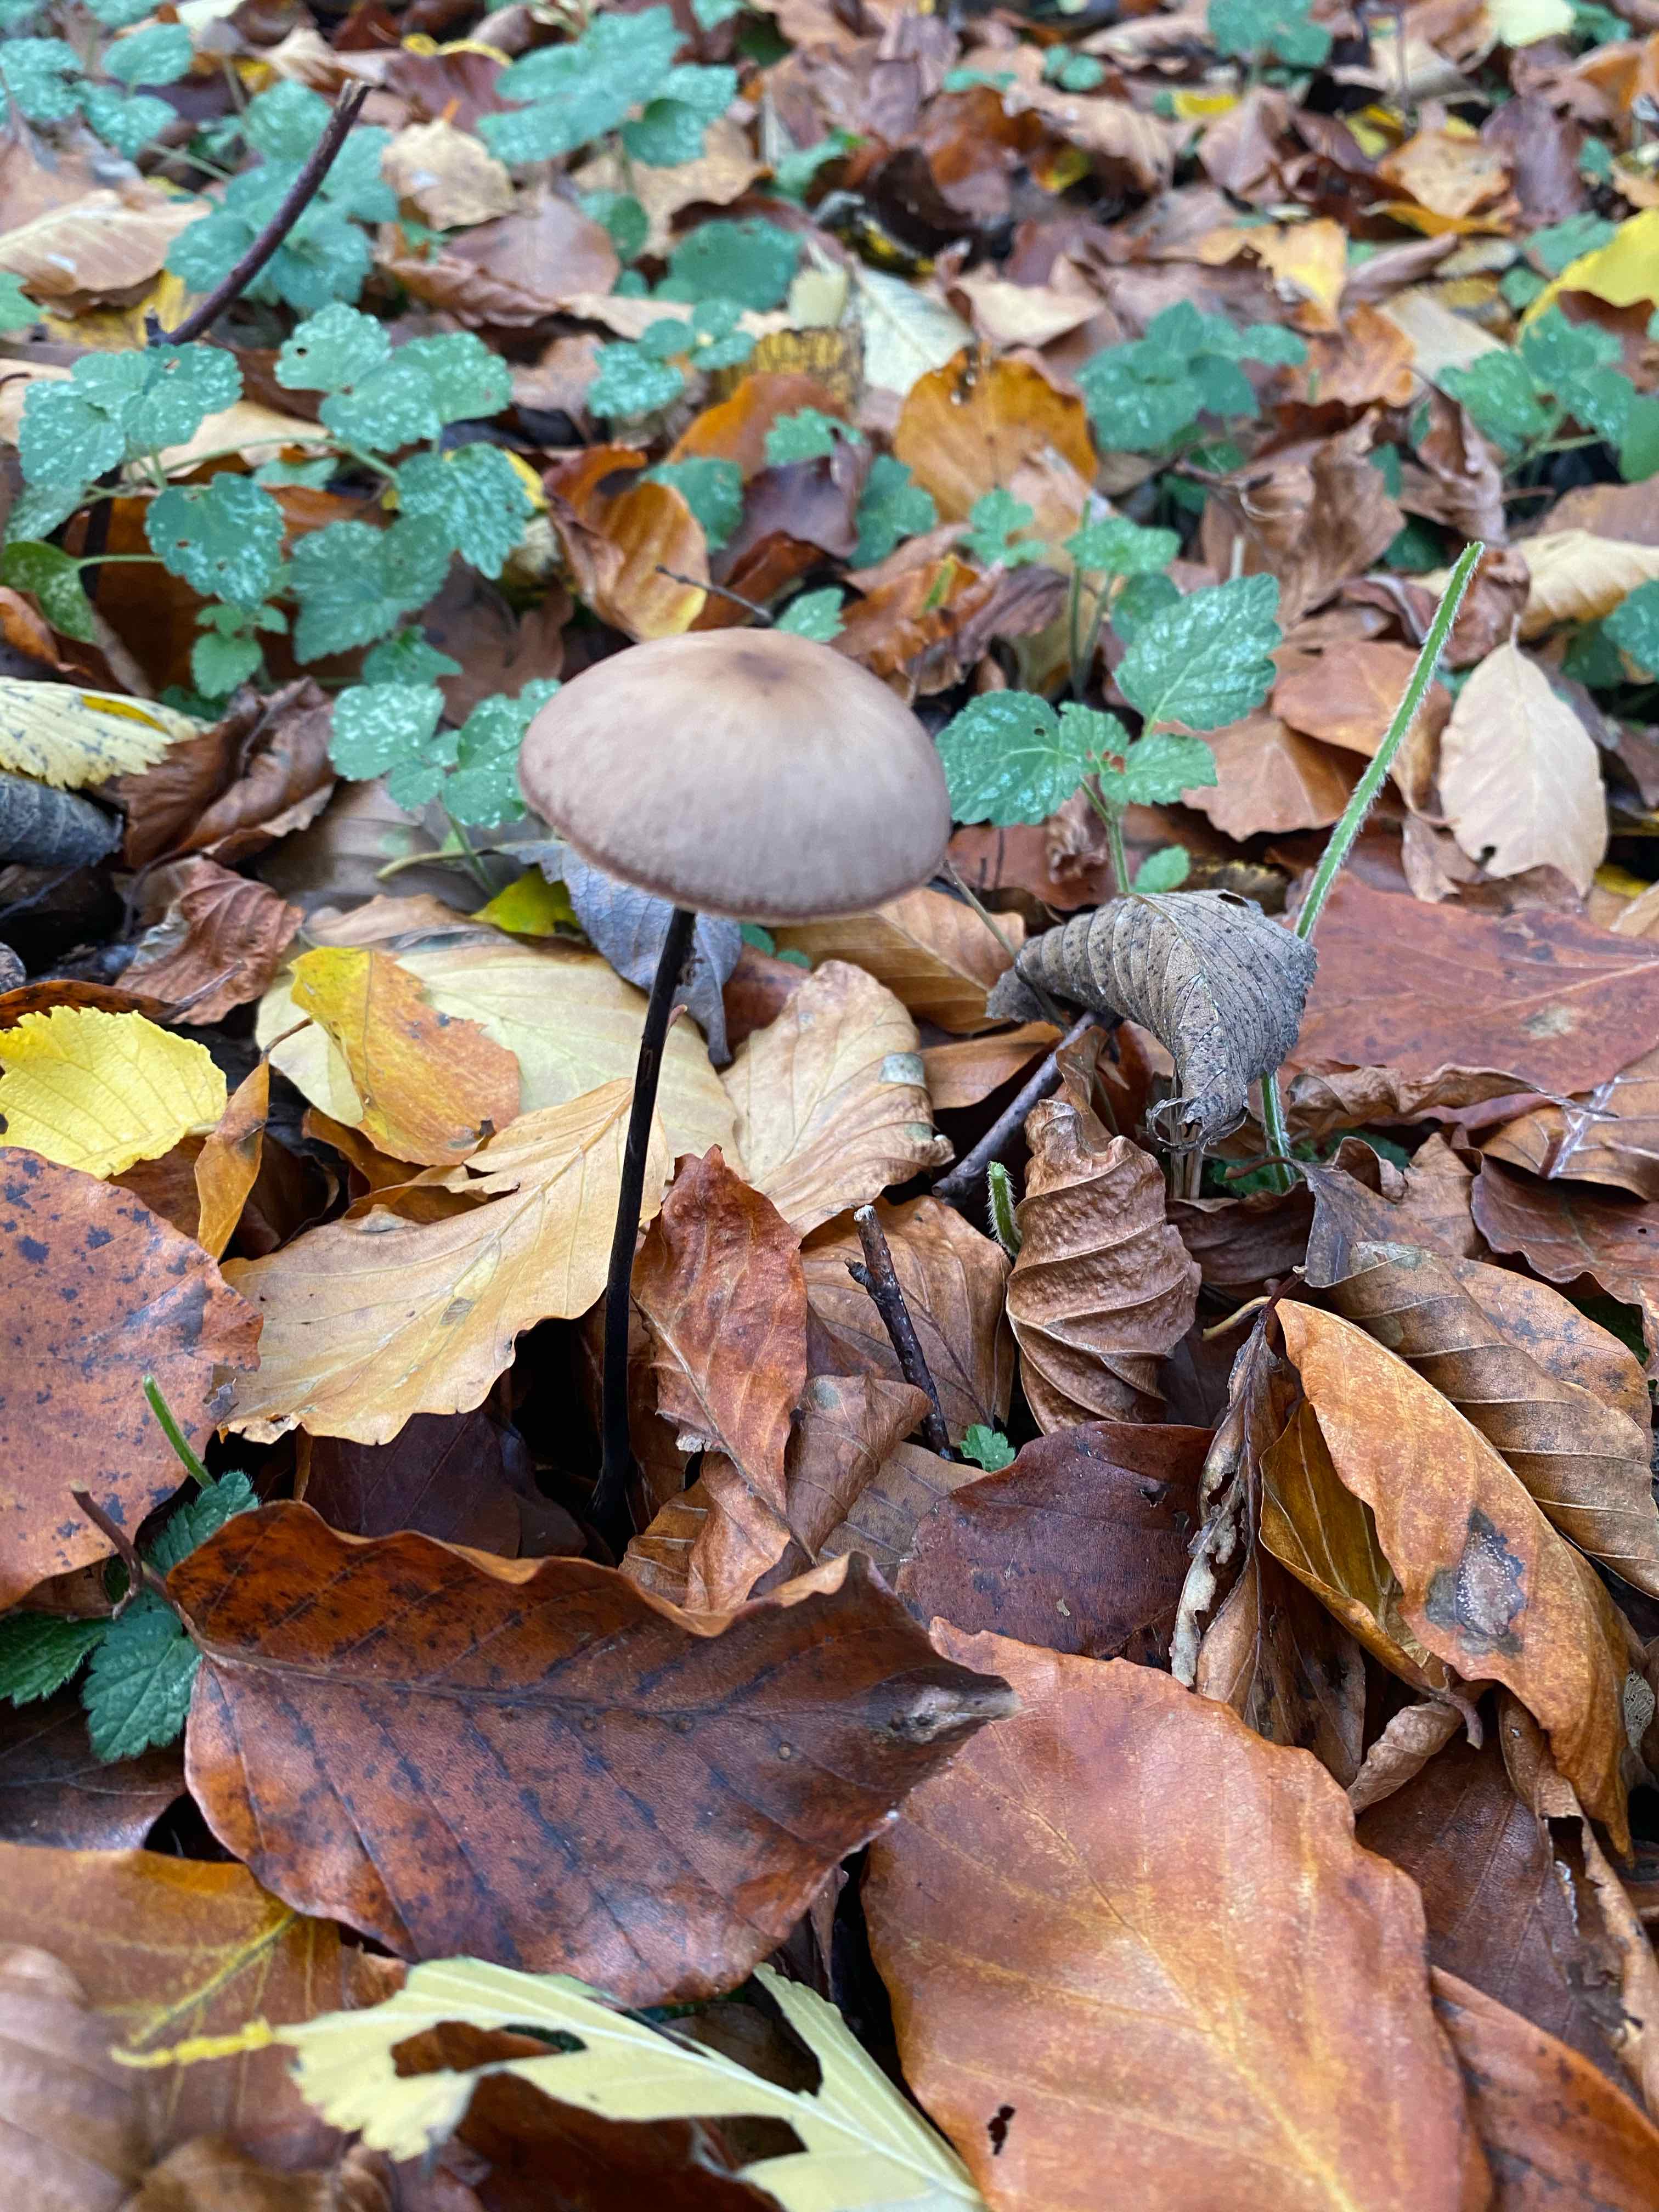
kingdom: Fungi
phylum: Basidiomycota
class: Agaricomycetes
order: Agaricales
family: Omphalotaceae
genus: Mycetinis
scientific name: Mycetinis alliaceus
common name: stor løghat
